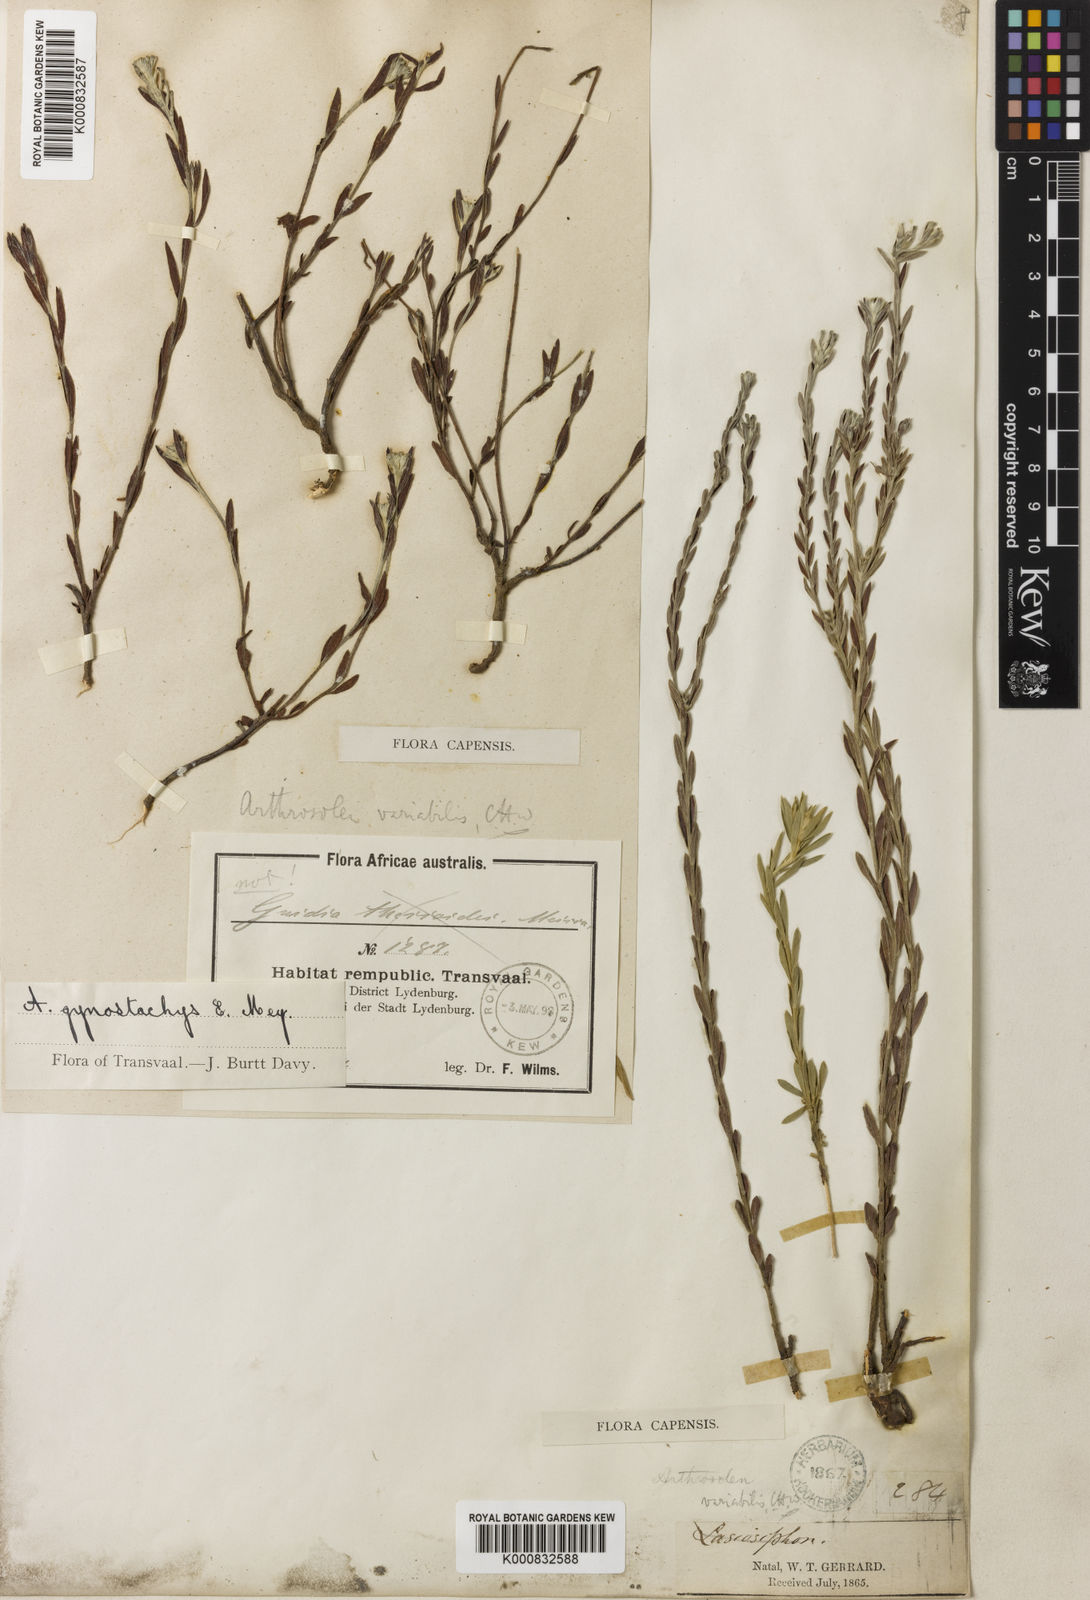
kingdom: Plantae
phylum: Tracheophyta
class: Magnoliopsida
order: Malvales
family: Thymelaeaceae
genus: Gnidia
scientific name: Gnidia variabilis
